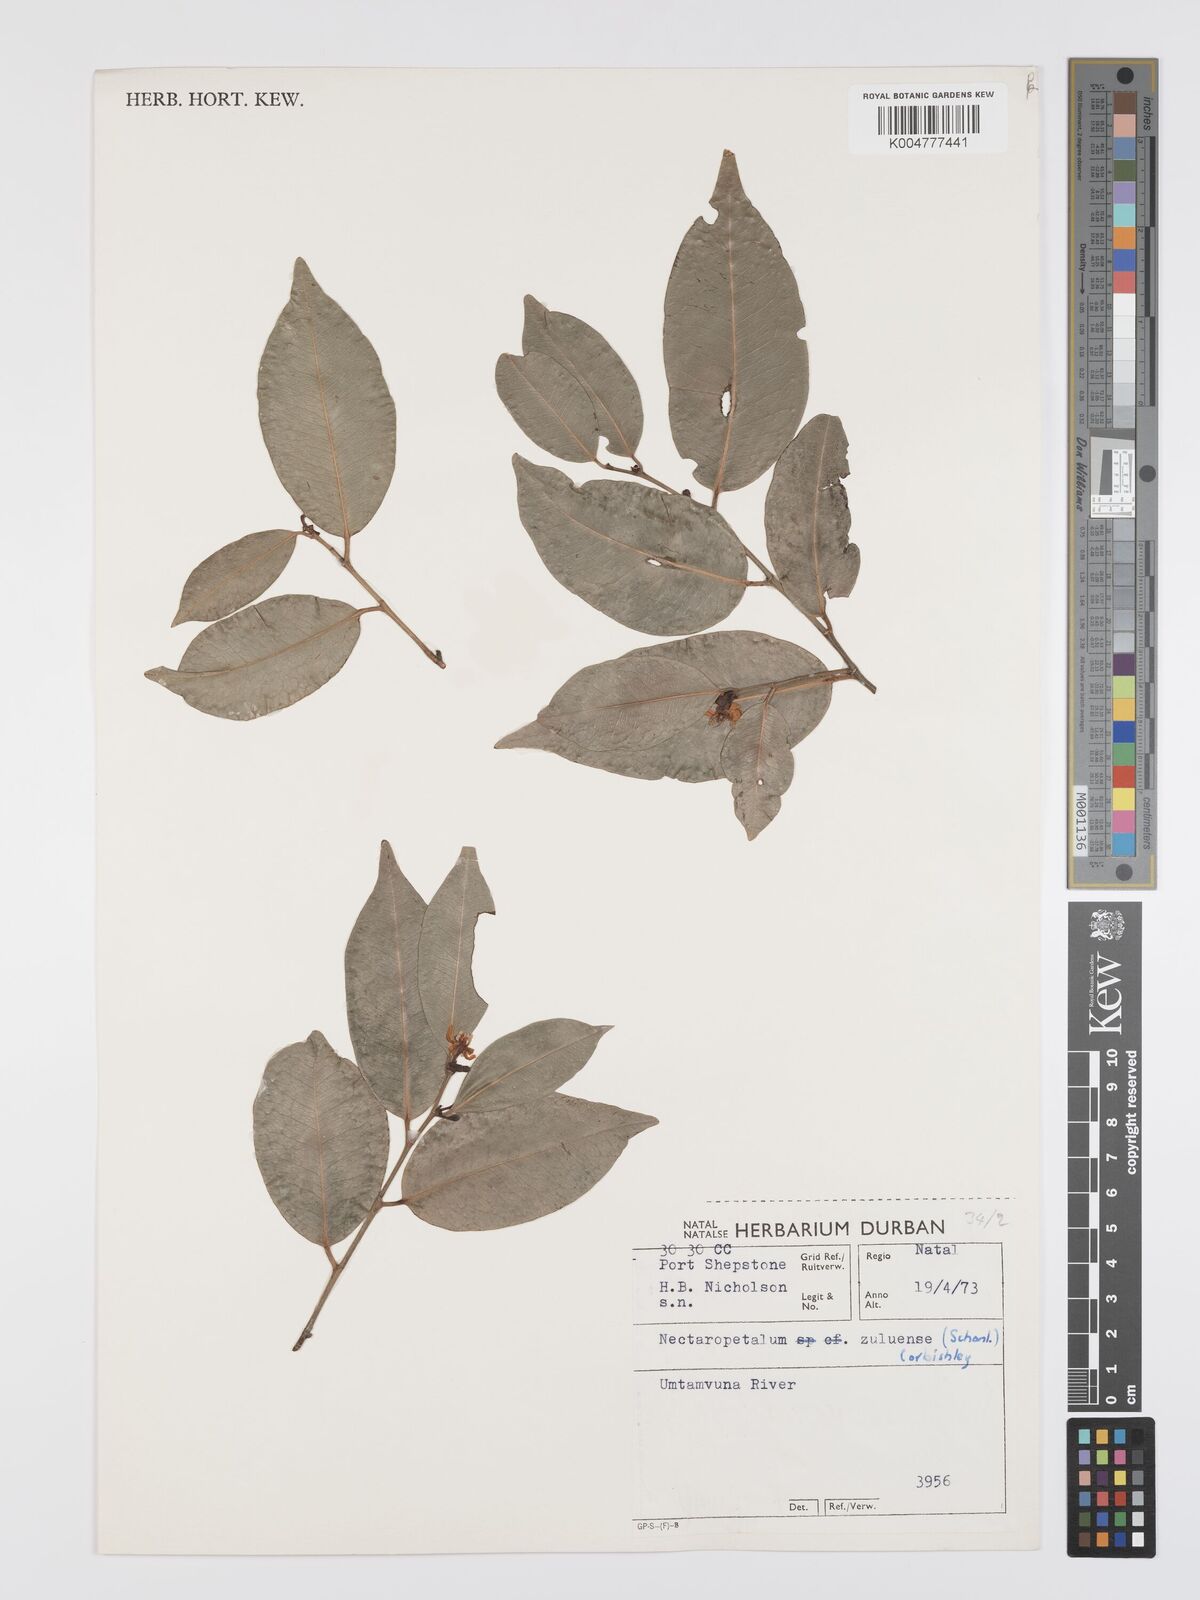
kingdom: Plantae
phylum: Tracheophyta
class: Magnoliopsida
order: Malpighiales
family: Erythroxylaceae
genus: Nectaropetalum
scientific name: Nectaropetalum zuluense
